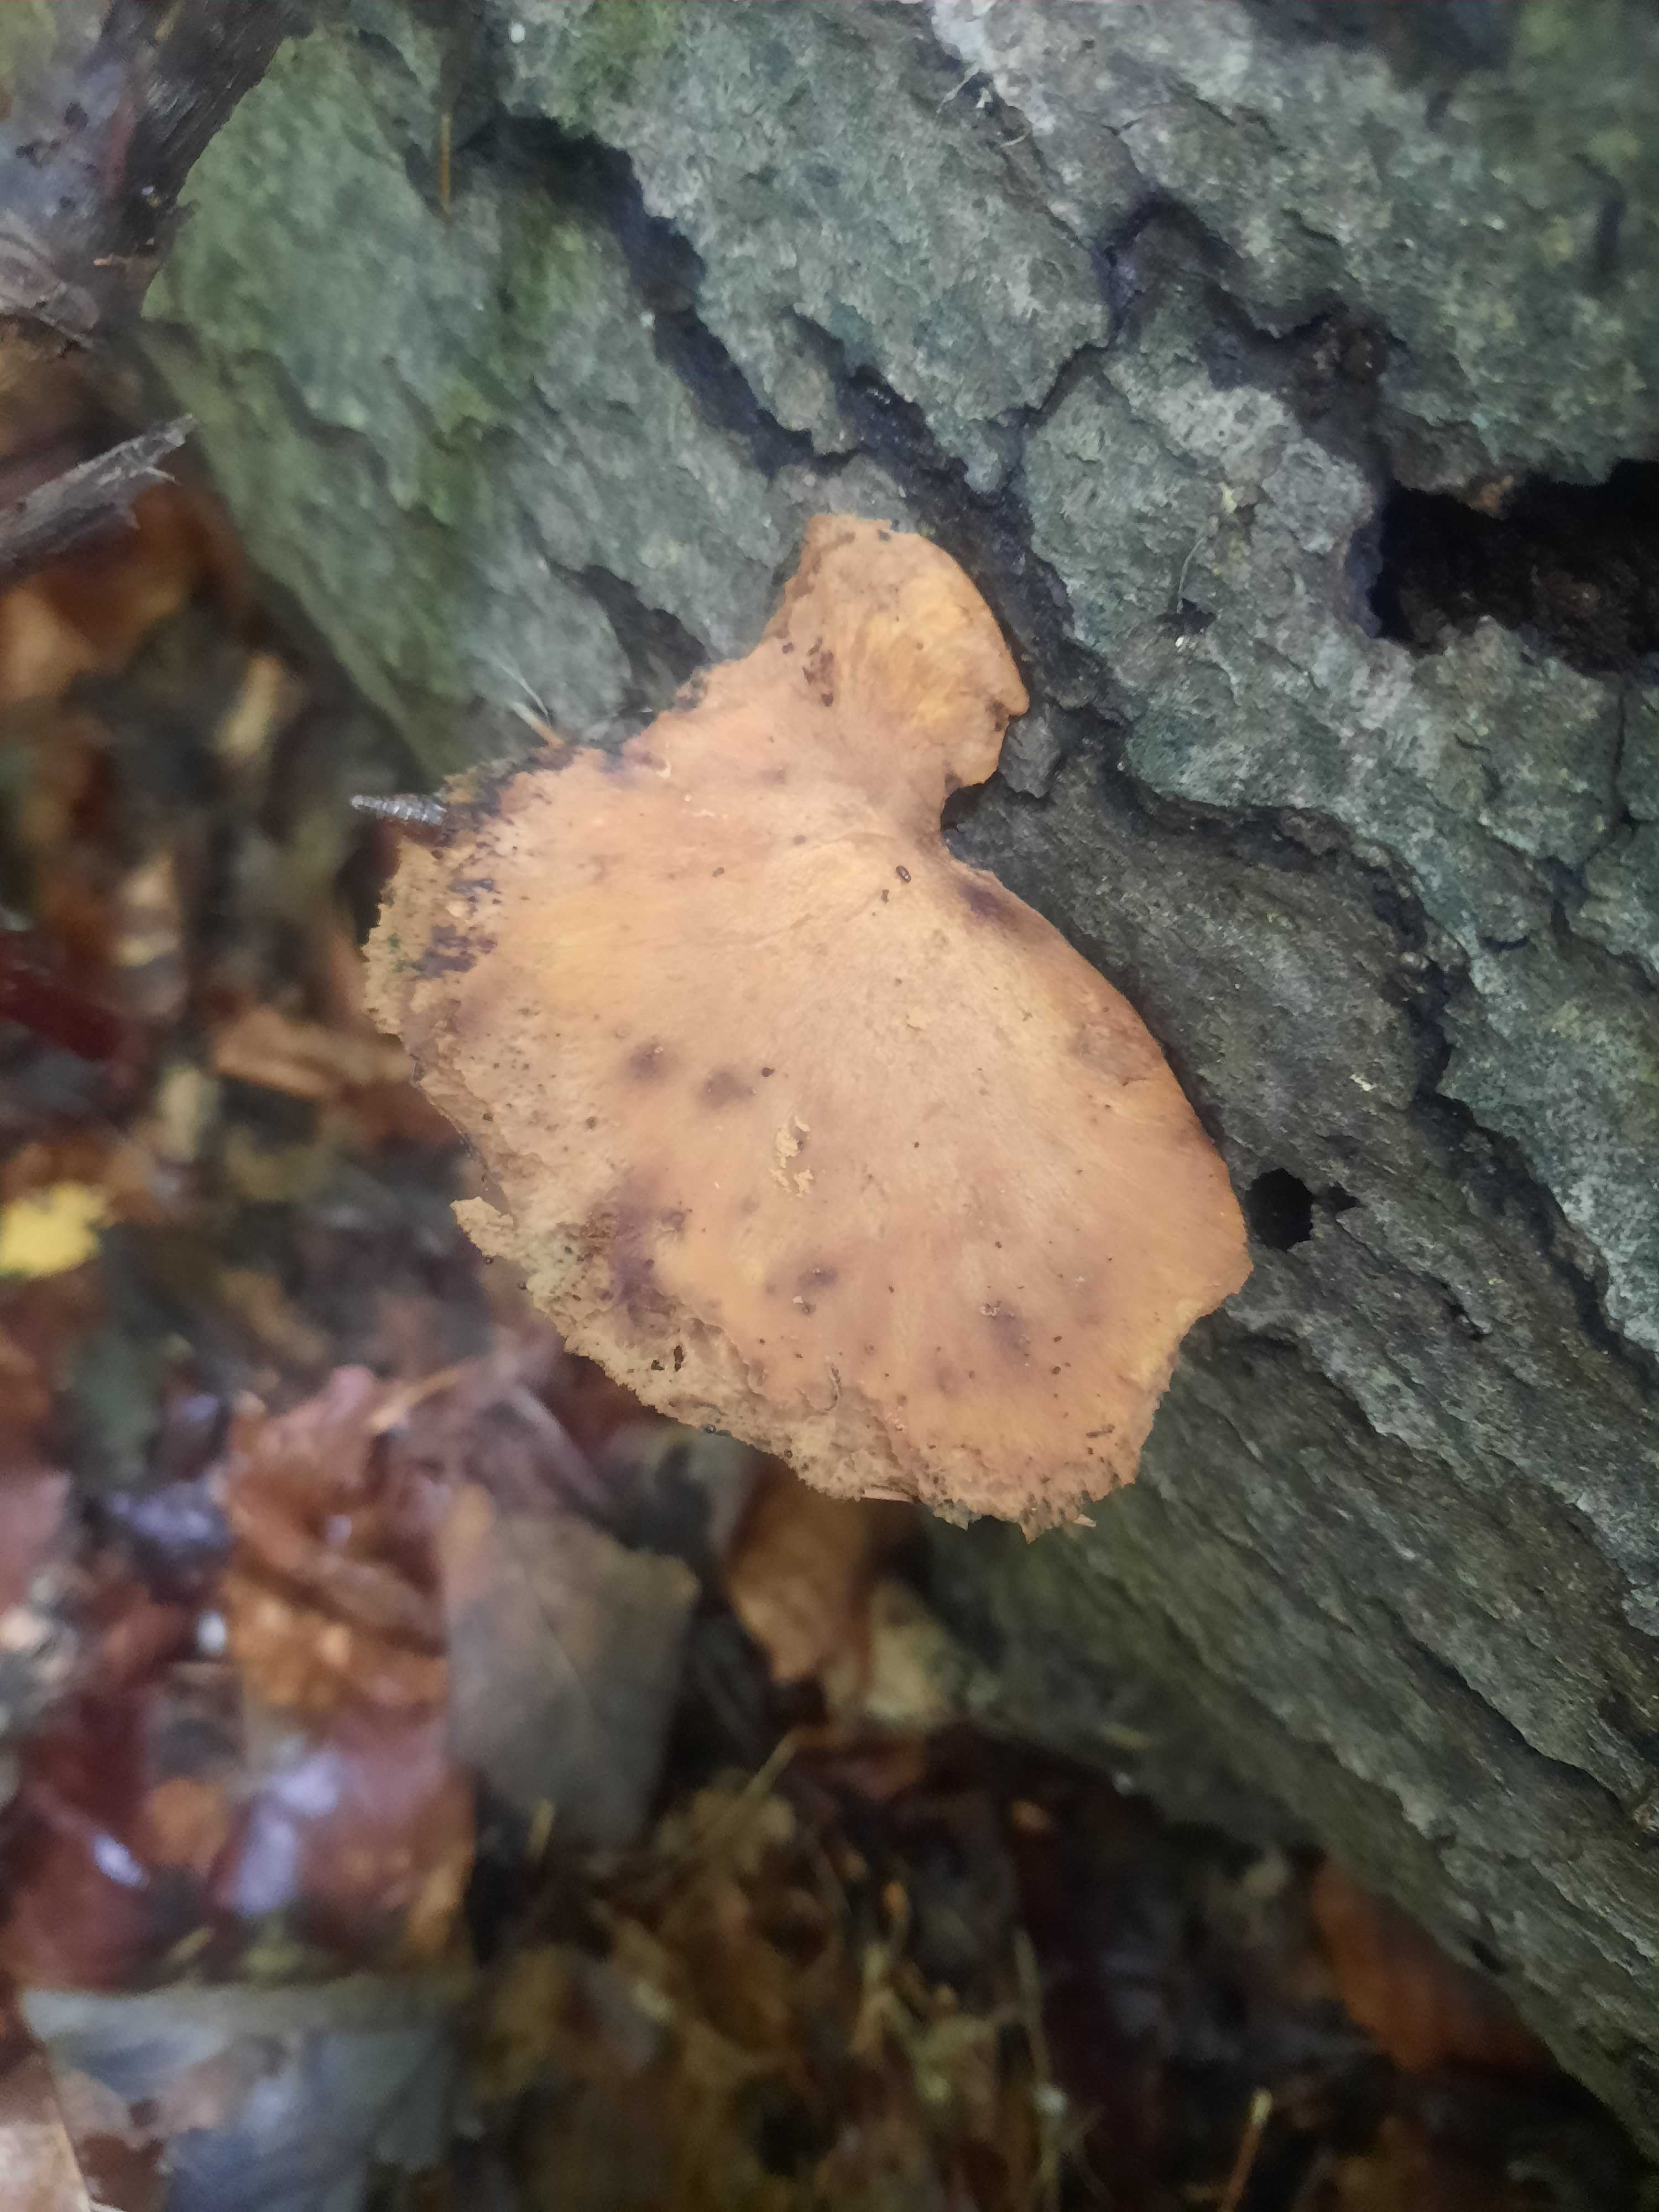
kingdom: Fungi
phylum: Basidiomycota
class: Agaricomycetes
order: Polyporales
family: Polyporaceae
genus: Cerioporus
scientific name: Cerioporus varius
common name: foranderlig stilkporesvamp
